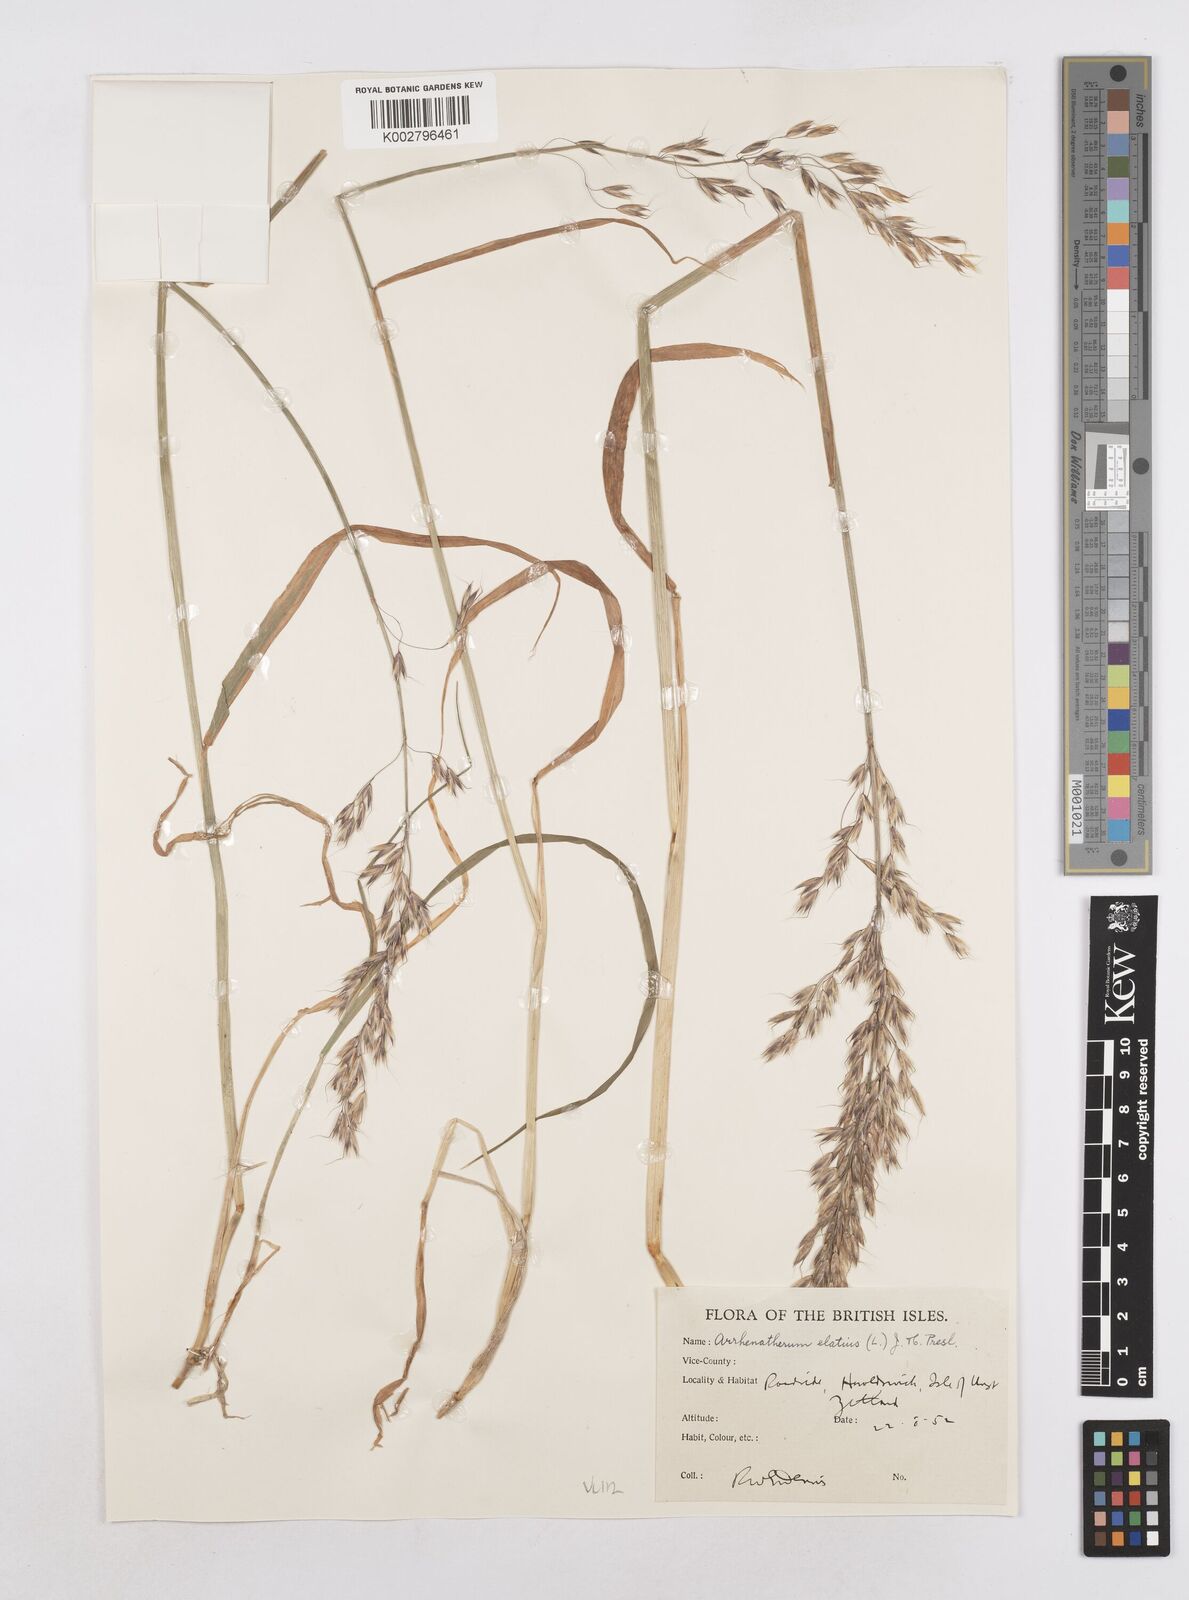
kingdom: Plantae
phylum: Tracheophyta
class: Liliopsida
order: Poales
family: Poaceae
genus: Arrhenatherum
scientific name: Arrhenatherum elatius
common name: Tall oatgrass
